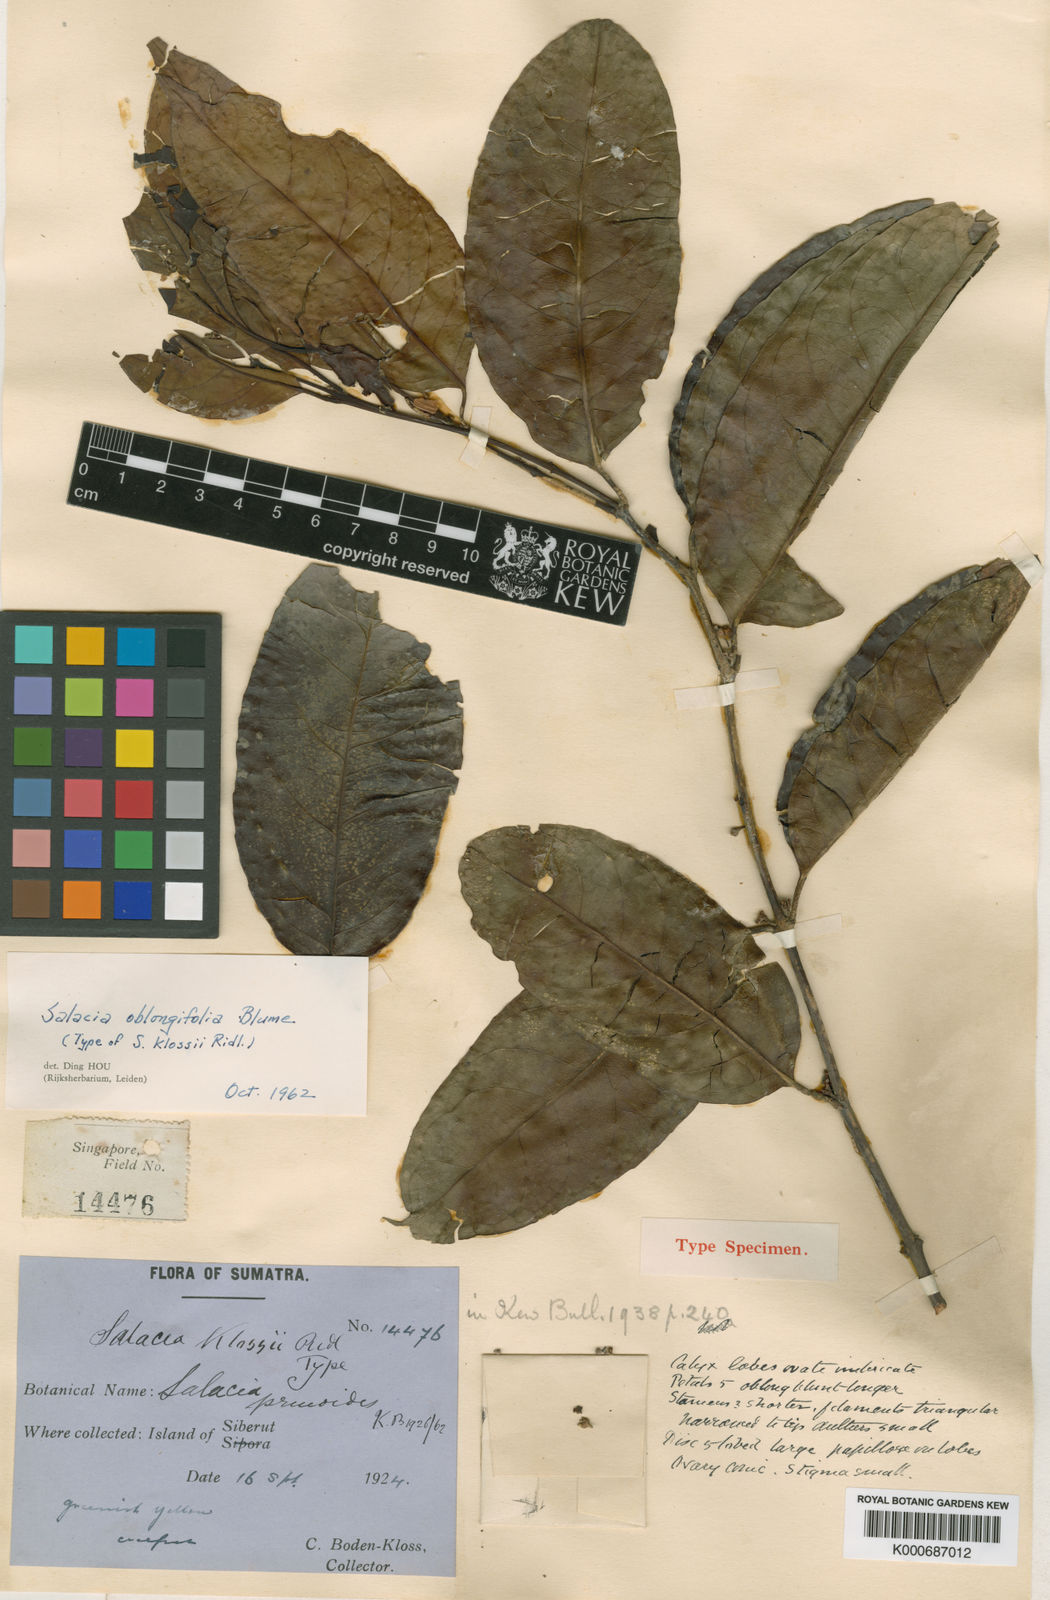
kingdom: Plantae
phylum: Tracheophyta
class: Magnoliopsida
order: Celastrales
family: Celastraceae
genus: Salacia
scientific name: Salacia oblongifolia
